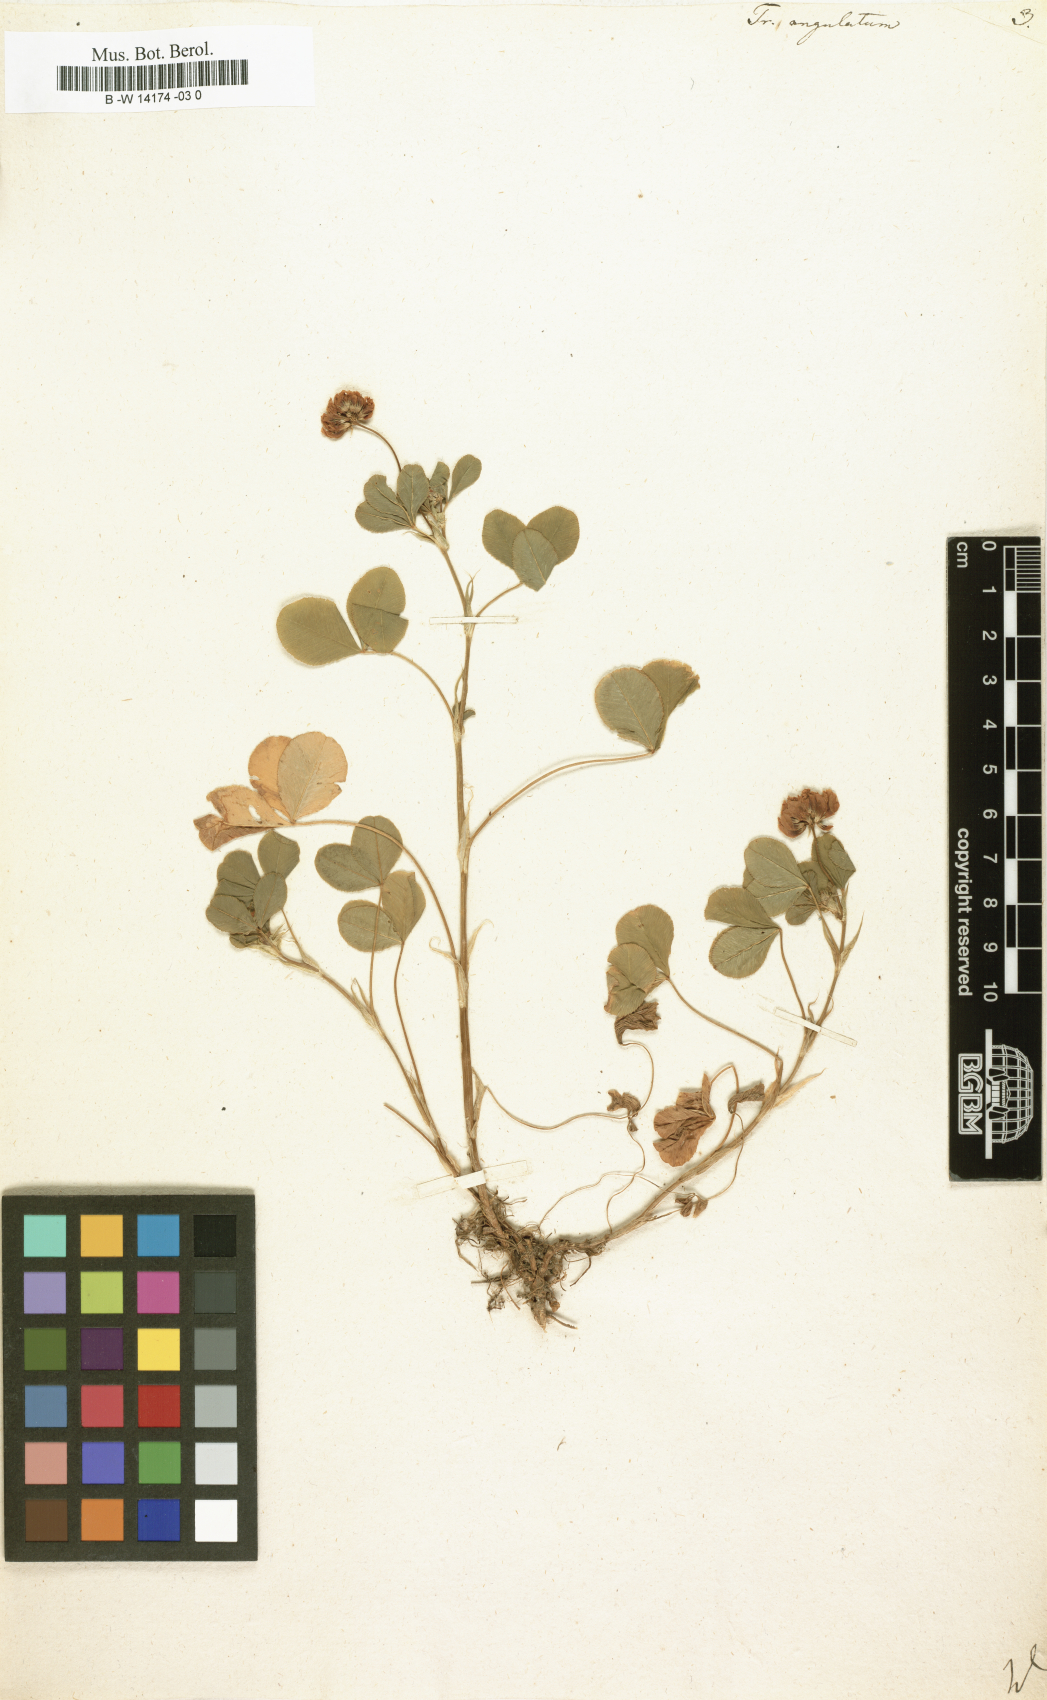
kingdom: Plantae
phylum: Tracheophyta
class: Magnoliopsida
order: Fabales
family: Fabaceae
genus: Trifolium
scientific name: Trifolium angulatum
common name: Angled clover
